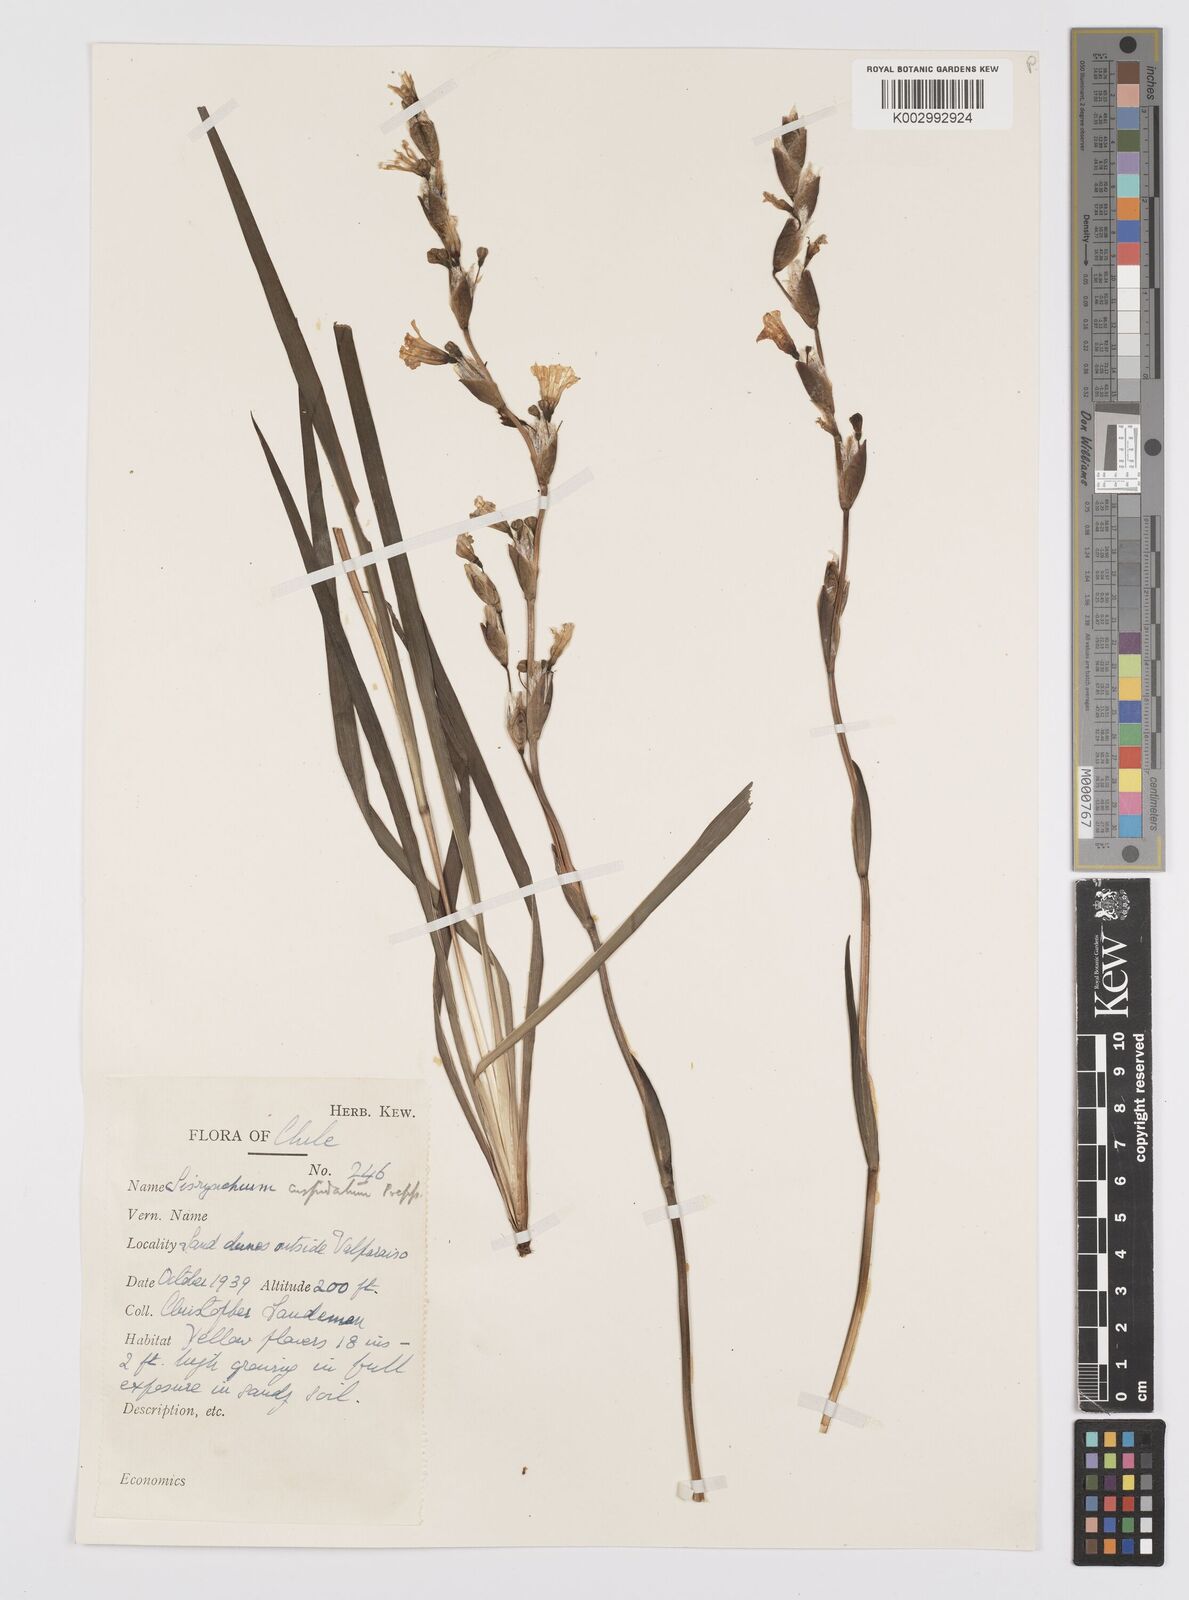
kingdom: Plantae
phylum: Tracheophyta
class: Liliopsida
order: Asparagales
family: Iridaceae
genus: Sisyrinchium
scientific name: Sisyrinchium cuspidatum
